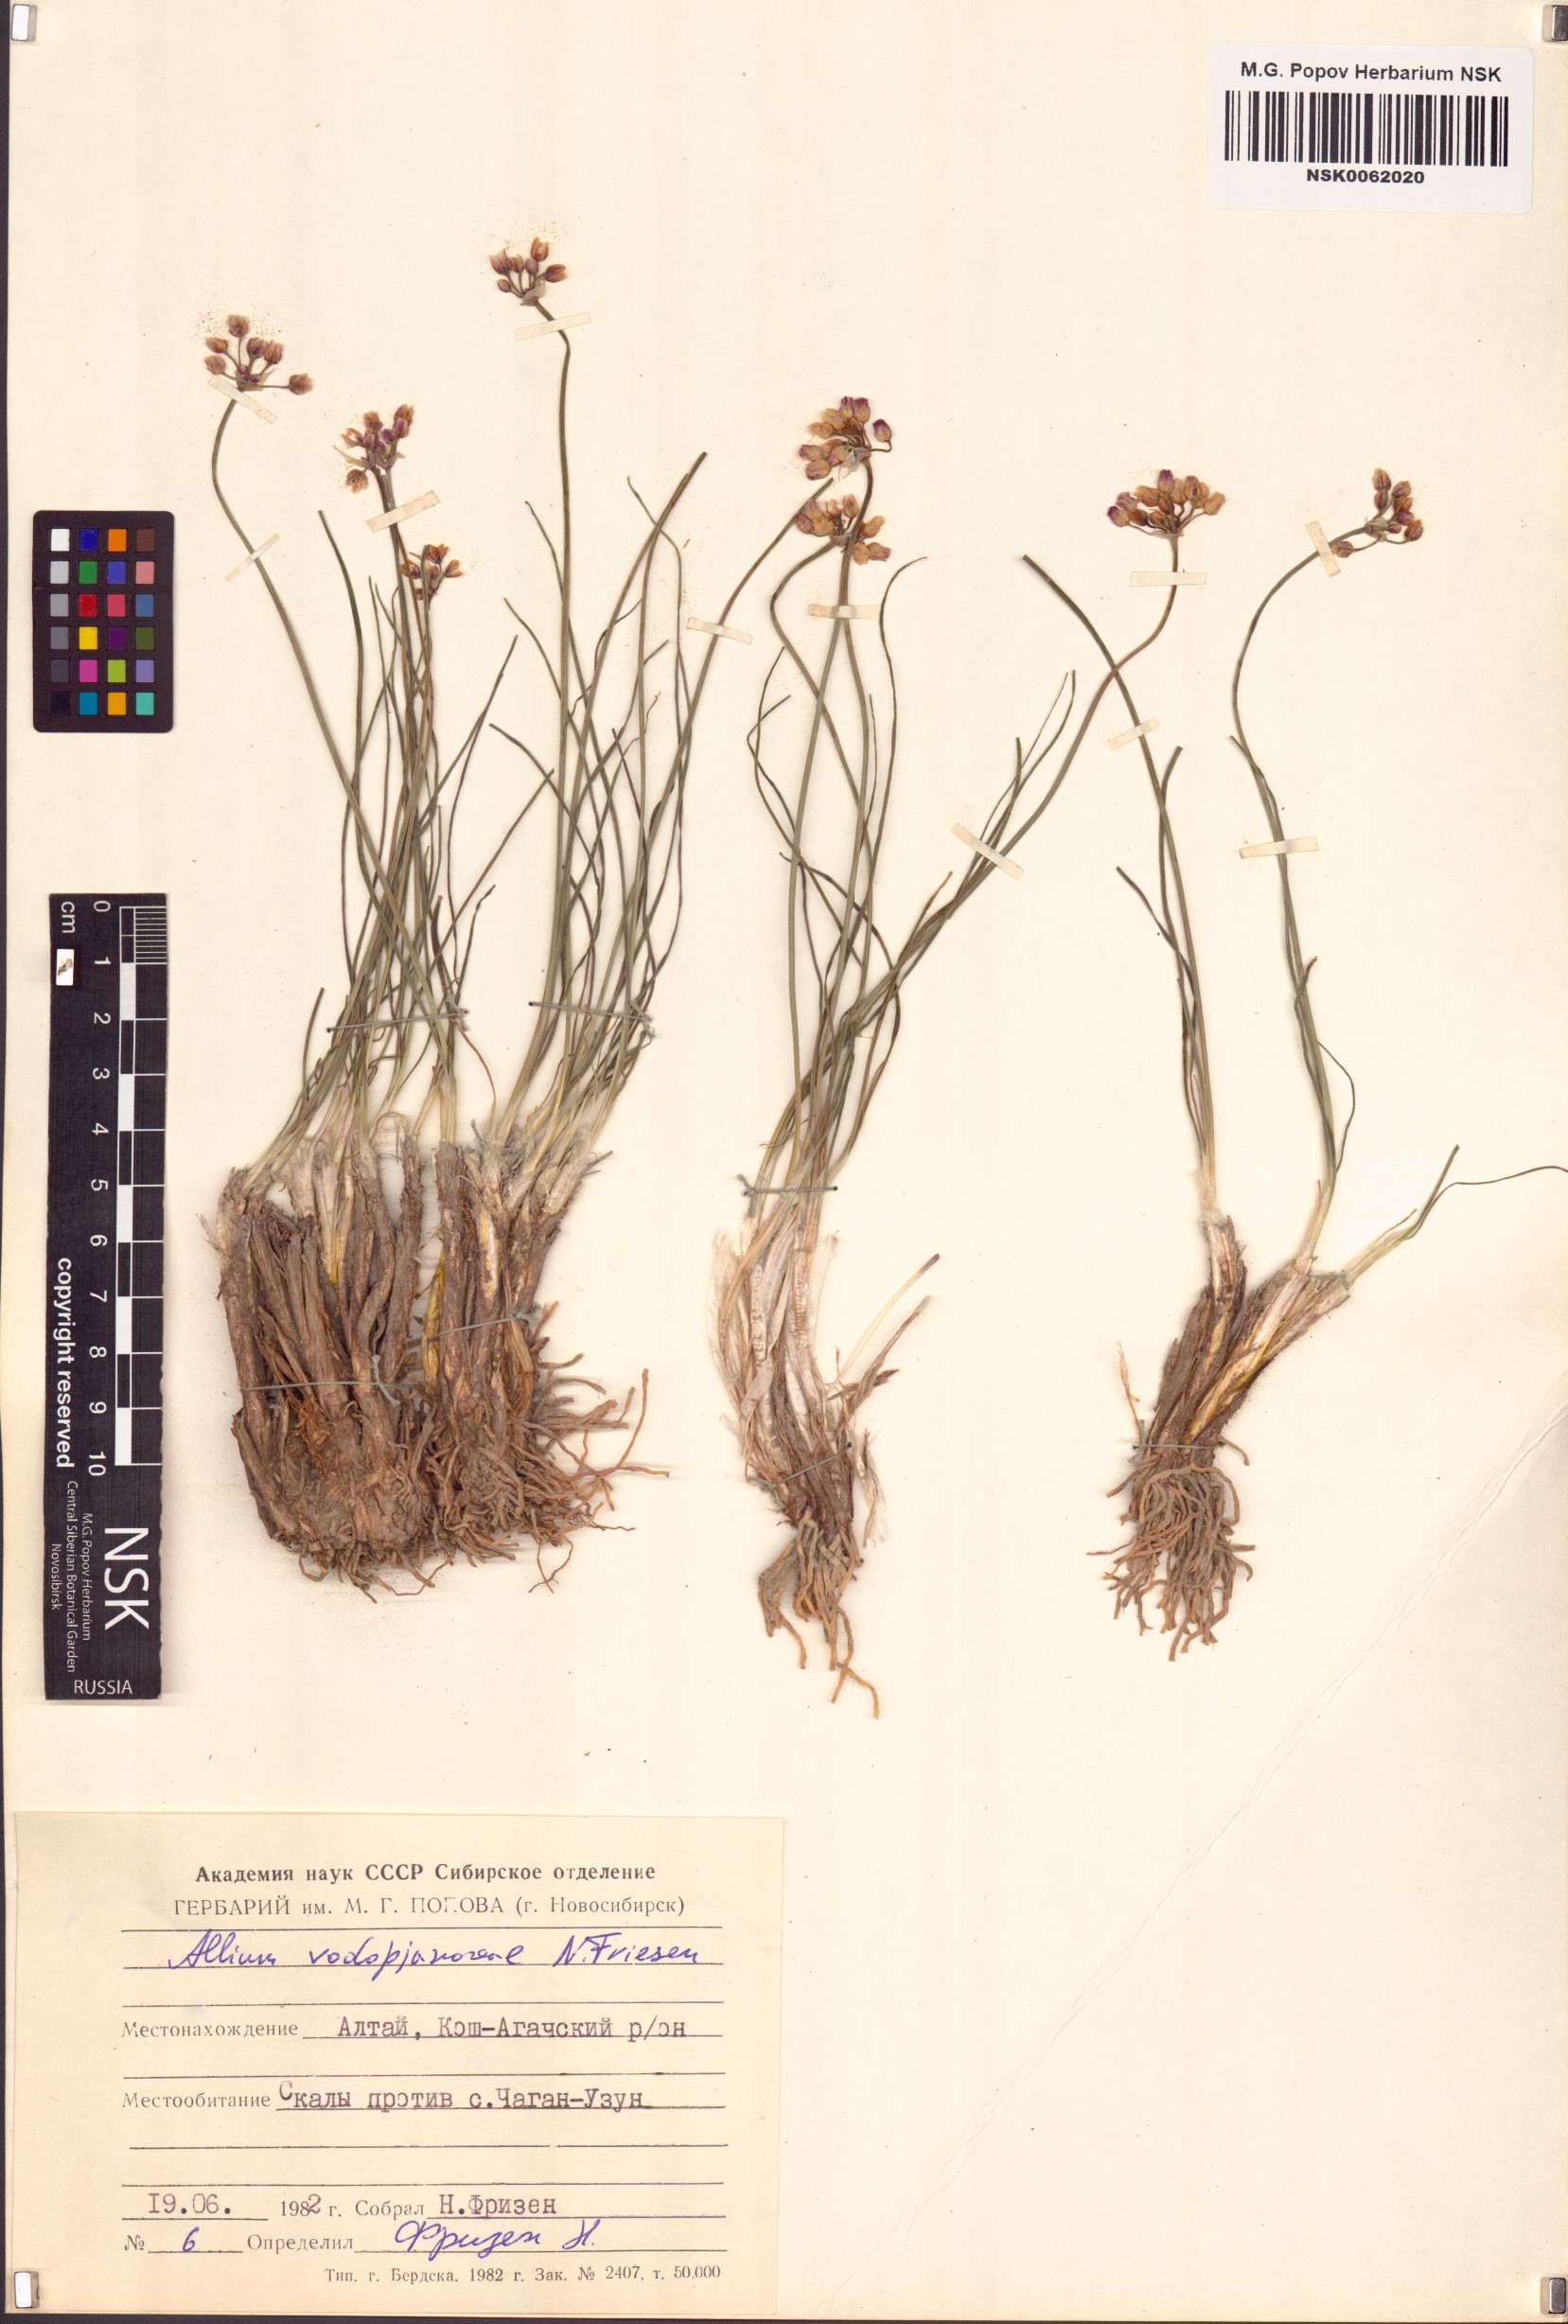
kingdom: Plantae
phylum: Tracheophyta
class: Liliopsida
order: Asparagales
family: Amaryllidaceae
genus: Allium
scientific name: Allium vodopjanovae
